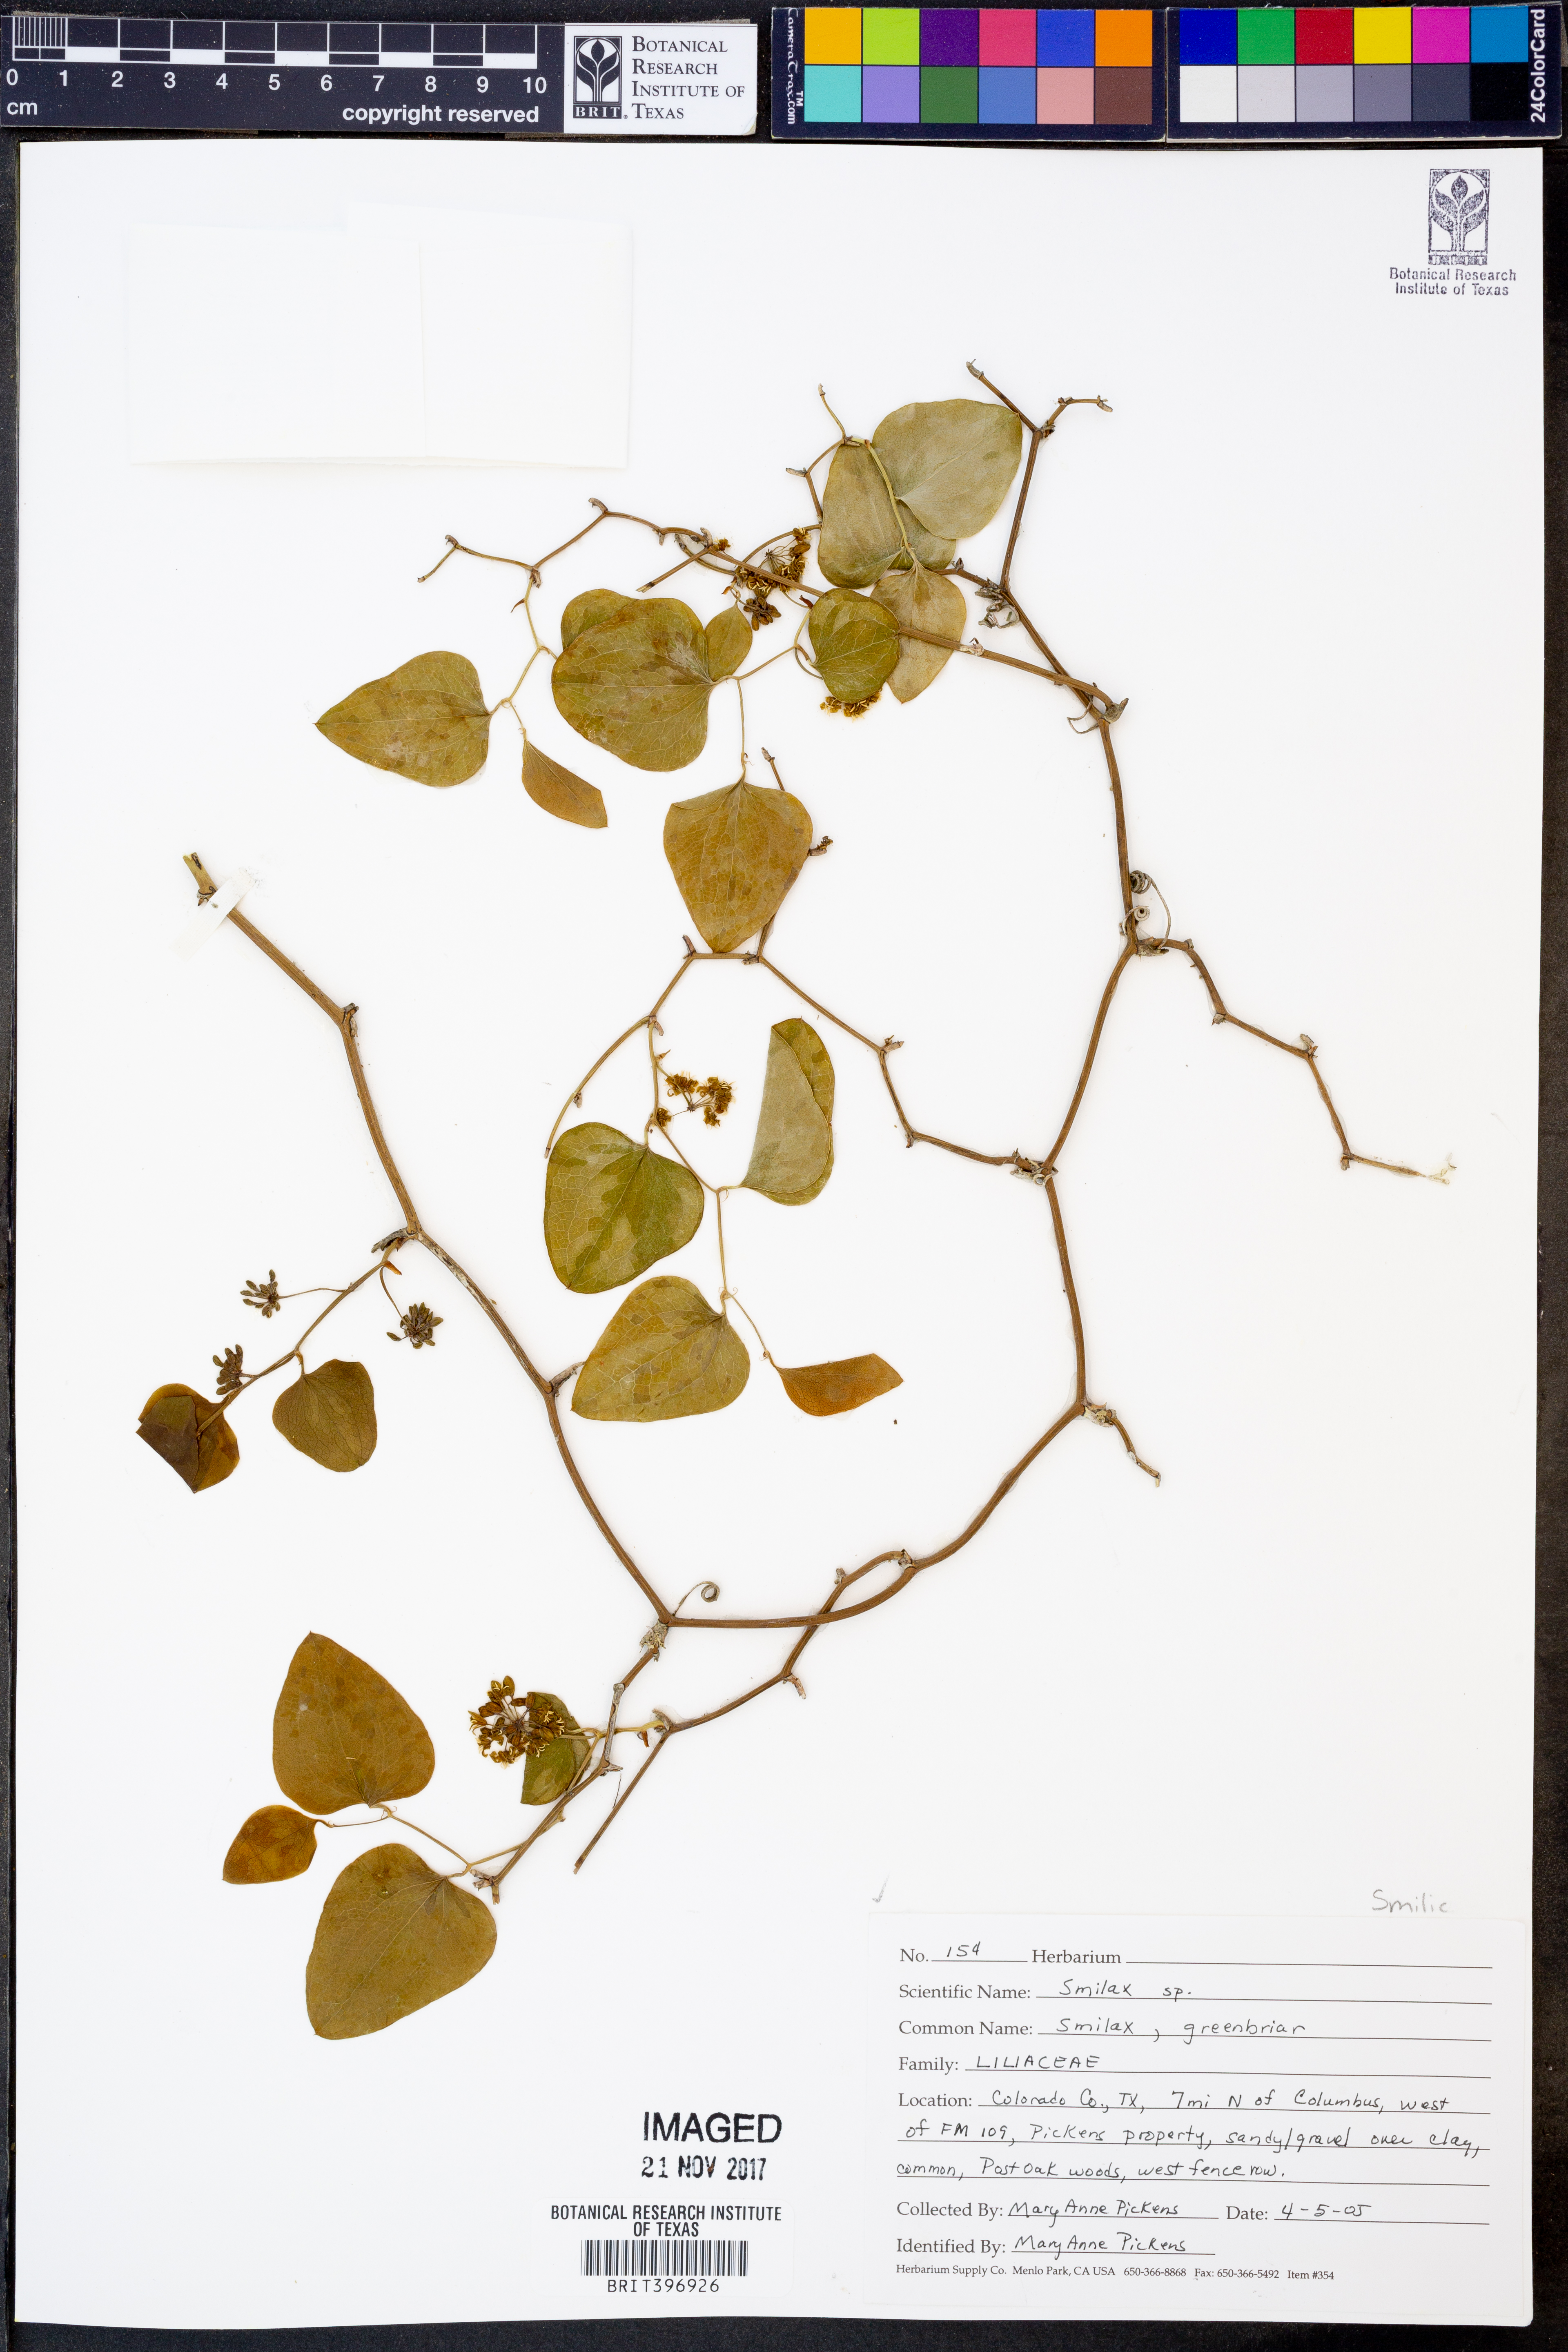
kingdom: Plantae
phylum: Tracheophyta
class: Liliopsida
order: Liliales
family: Smilacaceae
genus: Smilax
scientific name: Smilax
